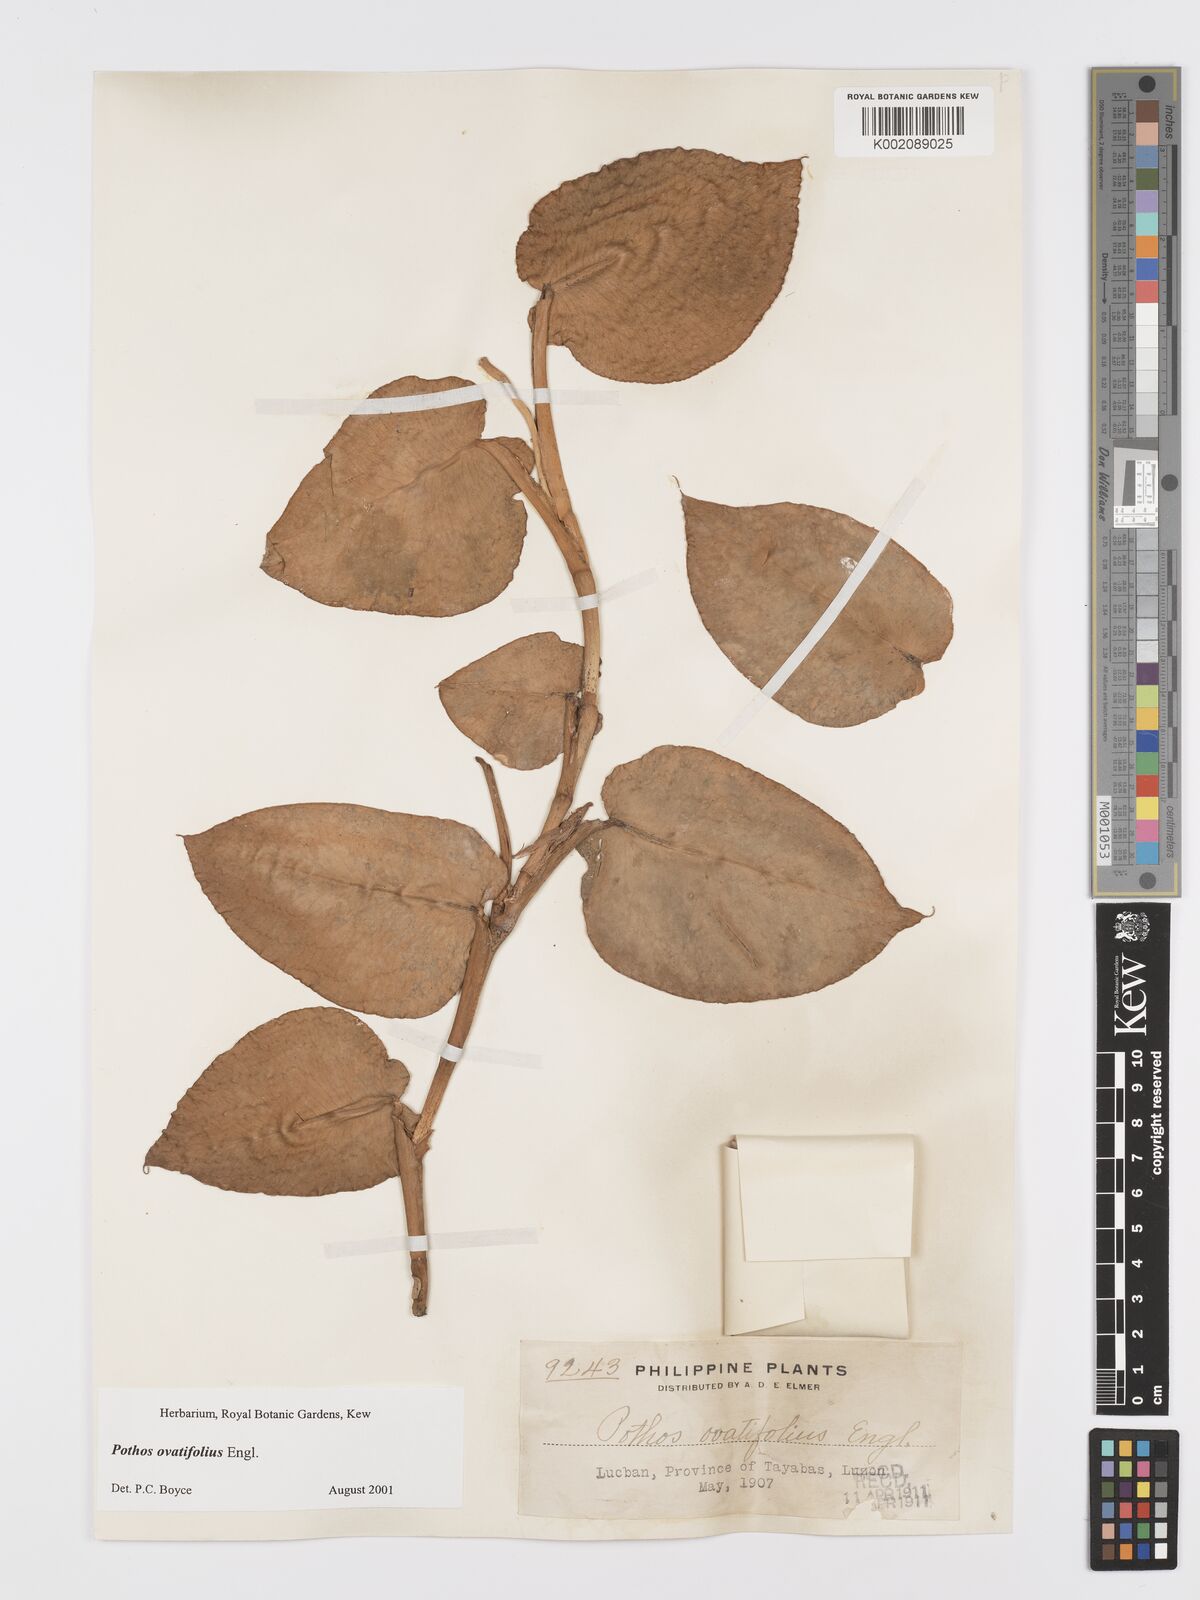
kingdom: Plantae
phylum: Tracheophyta
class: Liliopsida
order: Alismatales
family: Araceae
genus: Pothos
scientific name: Pothos ovatifolius
